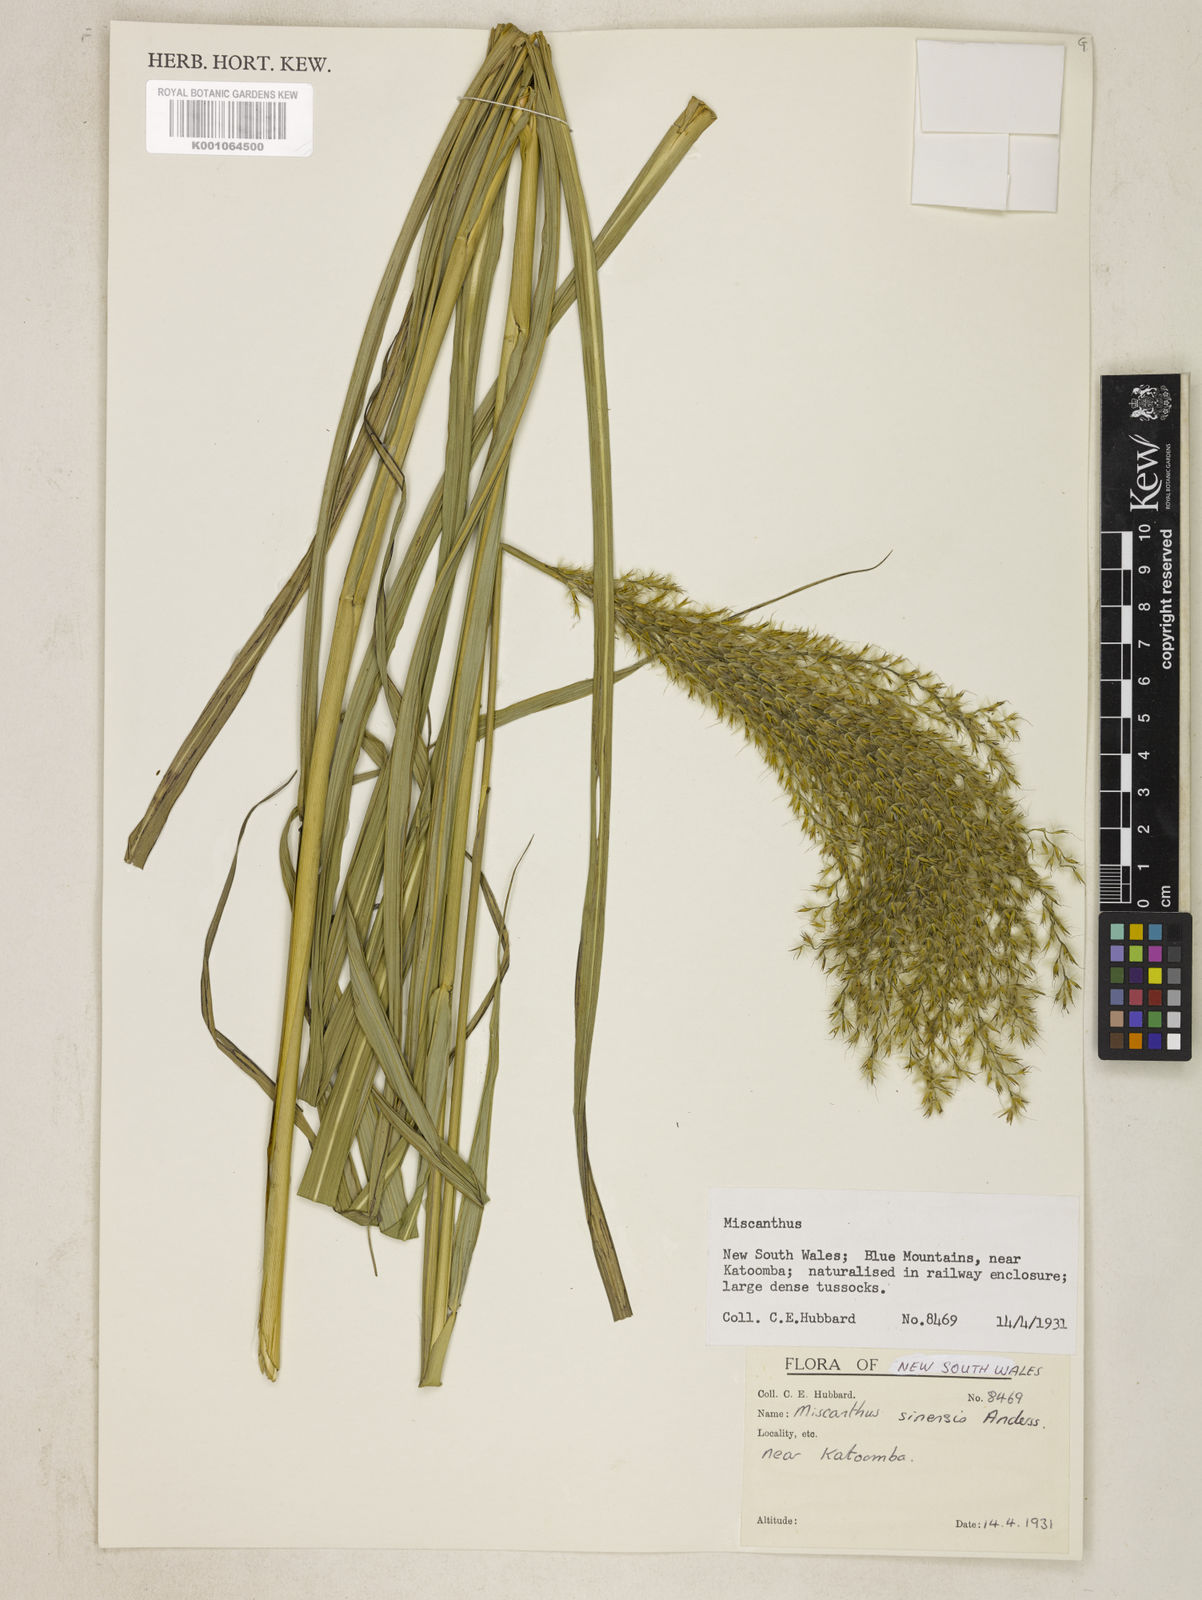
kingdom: Plantae
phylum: Tracheophyta
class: Liliopsida
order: Poales
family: Poaceae
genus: Miscanthus
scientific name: Miscanthus sinensis
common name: Chinese silvergrass
